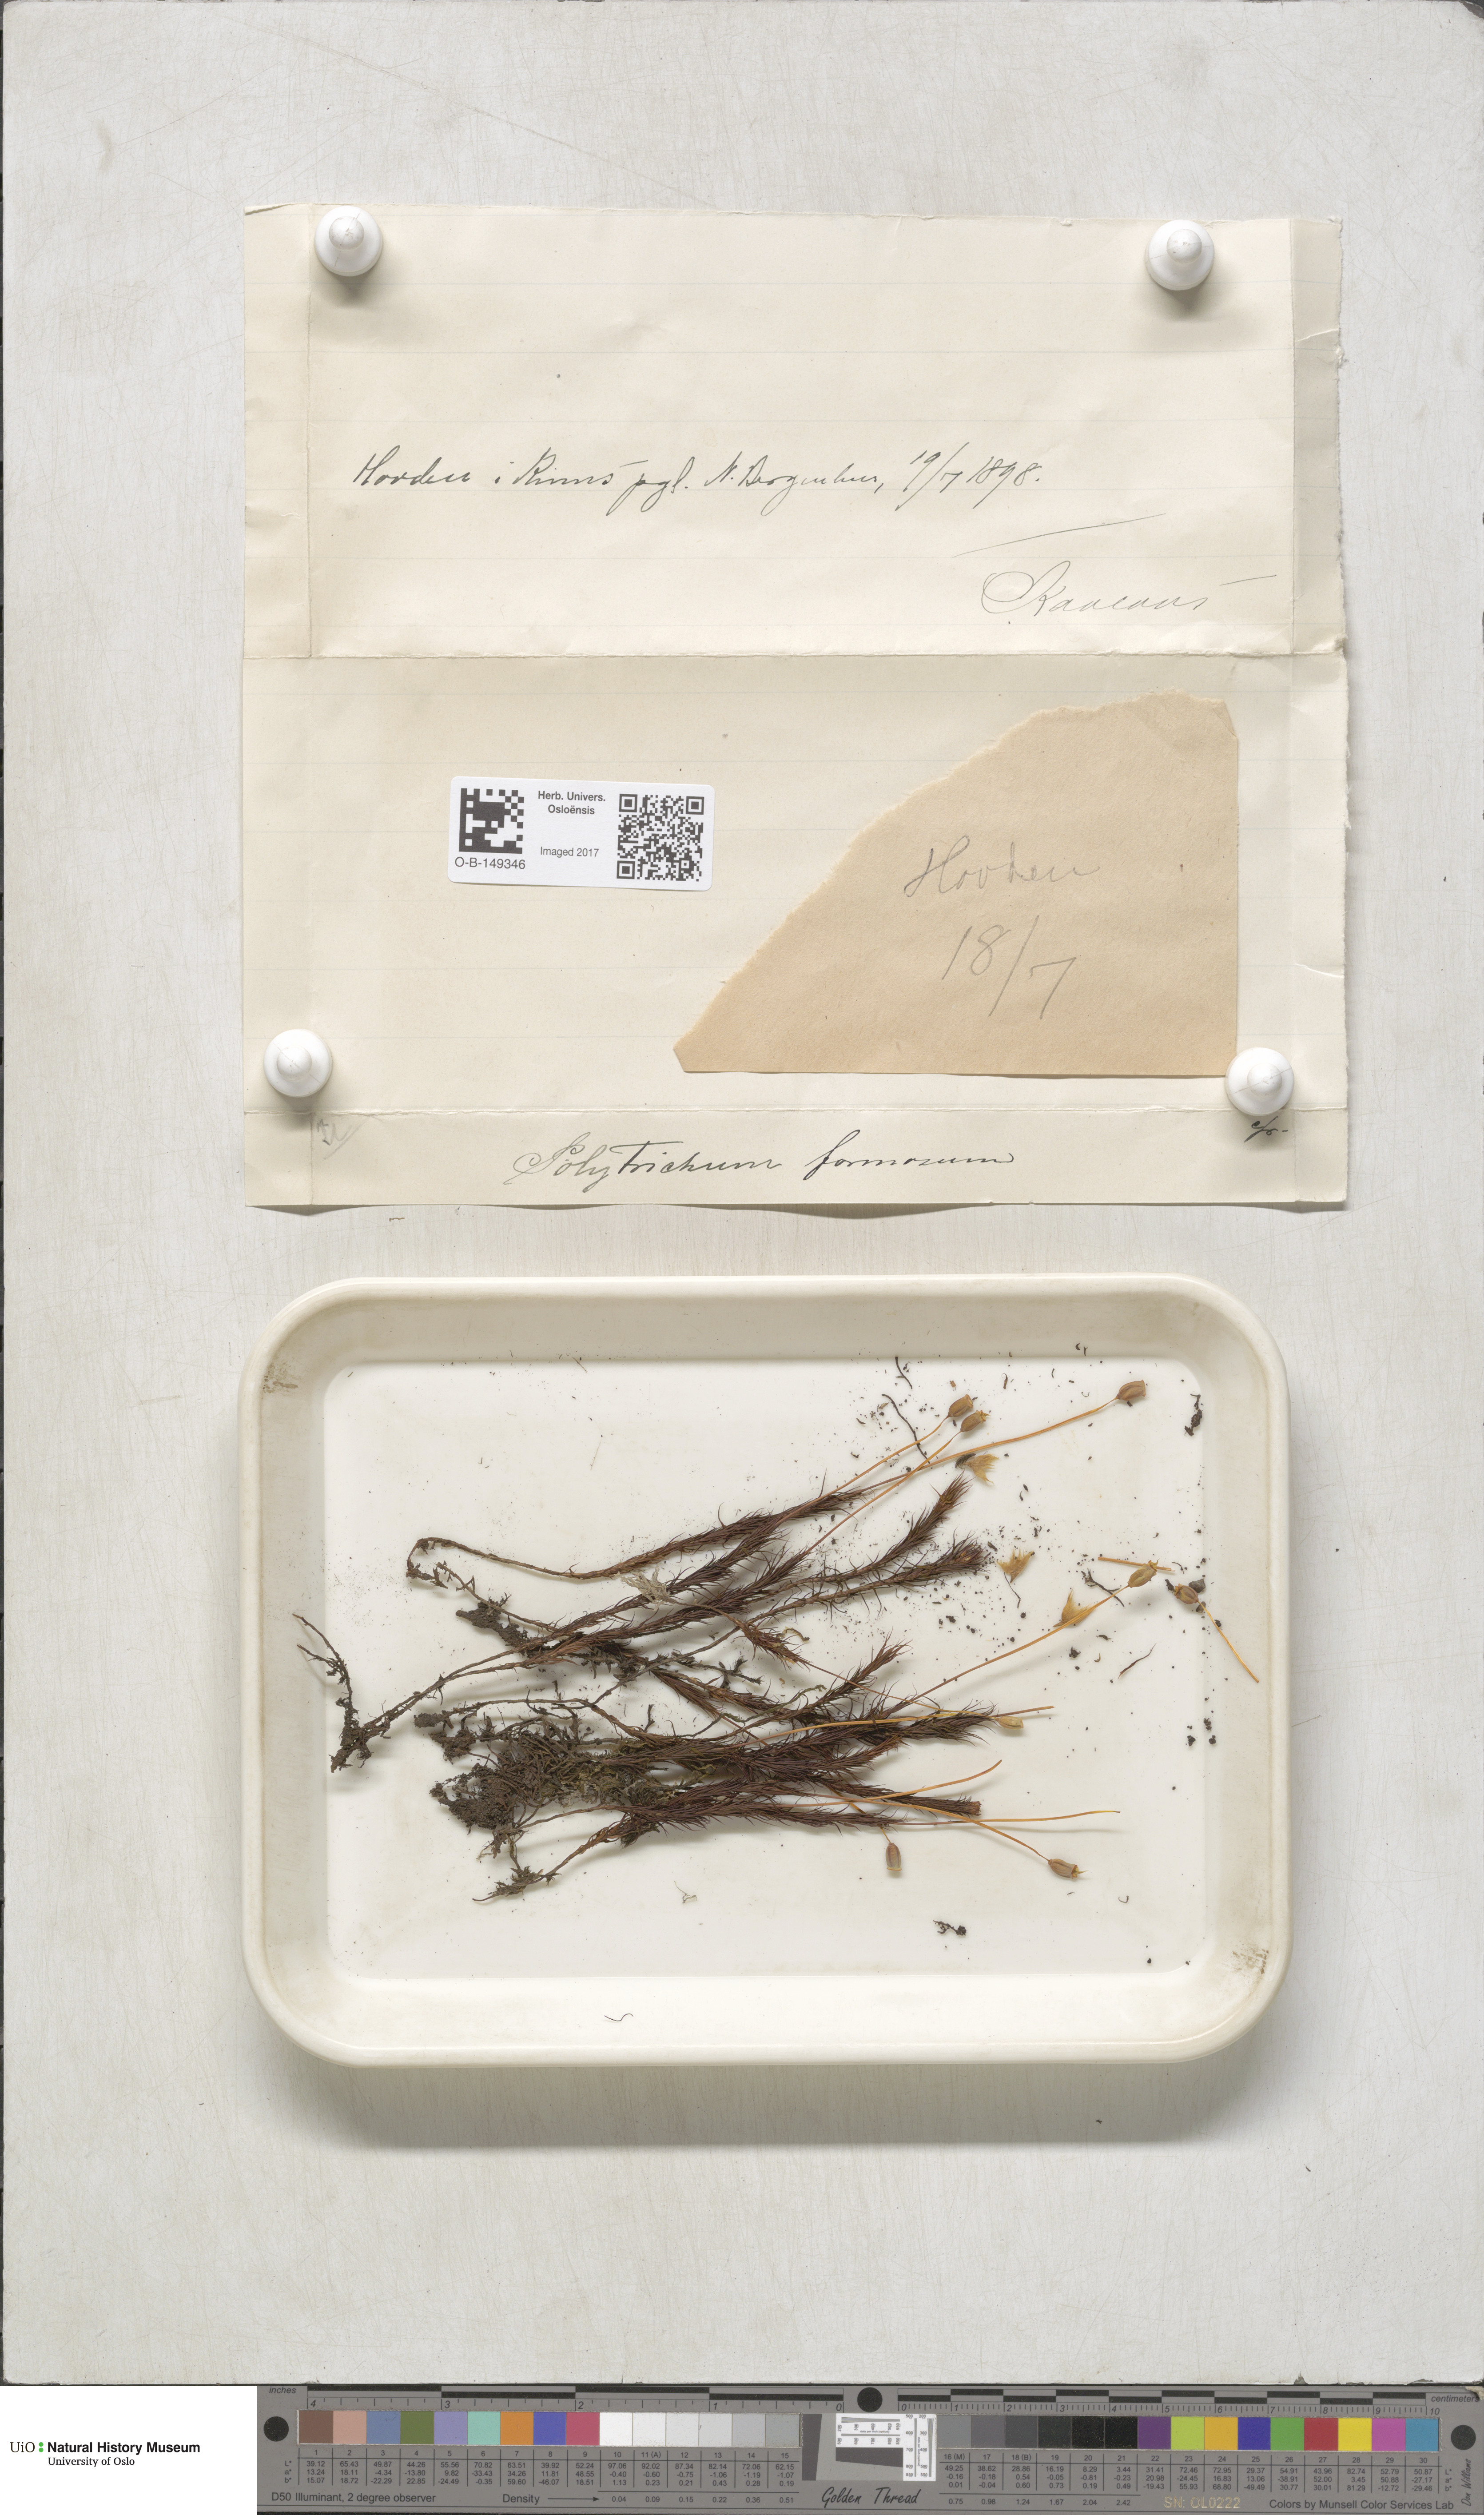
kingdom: Plantae
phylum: Bryophyta
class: Polytrichopsida
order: Polytrichales
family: Polytrichaceae
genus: Polytrichum
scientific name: Polytrichum formosum
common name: Bank haircap moss
